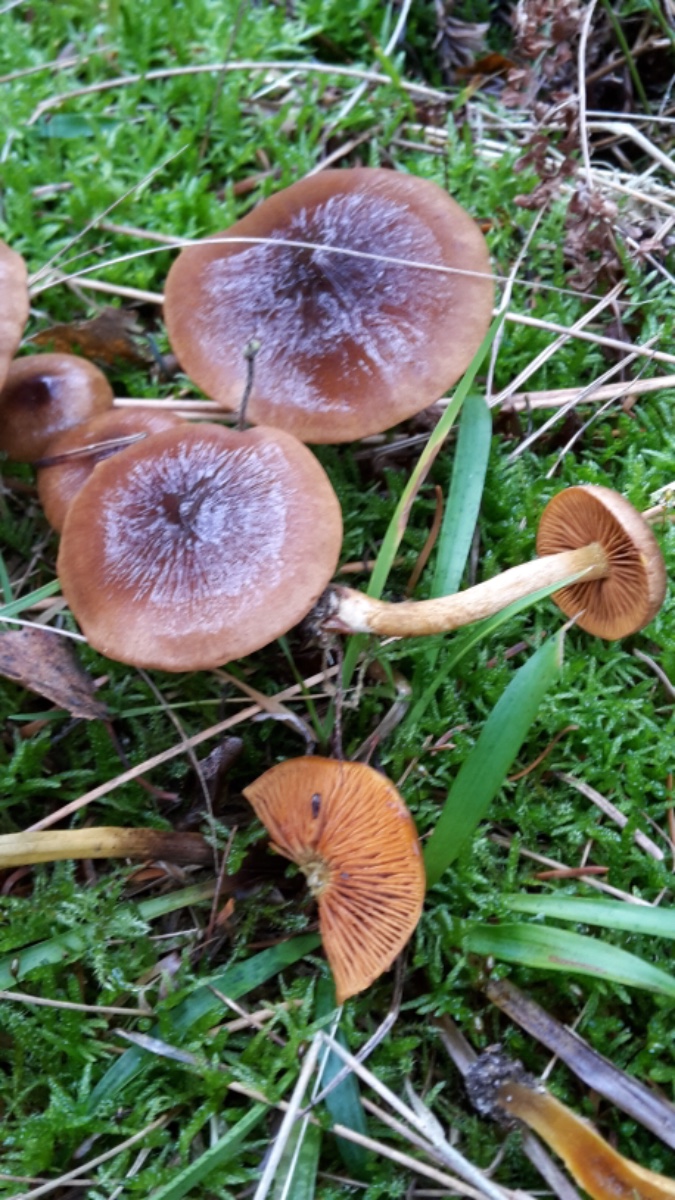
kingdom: Fungi
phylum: Basidiomycota
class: Agaricomycetes
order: Agaricales
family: Cortinariaceae
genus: Cortinarius
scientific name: Cortinarius cinnamomeus
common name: kanel-slørhat
